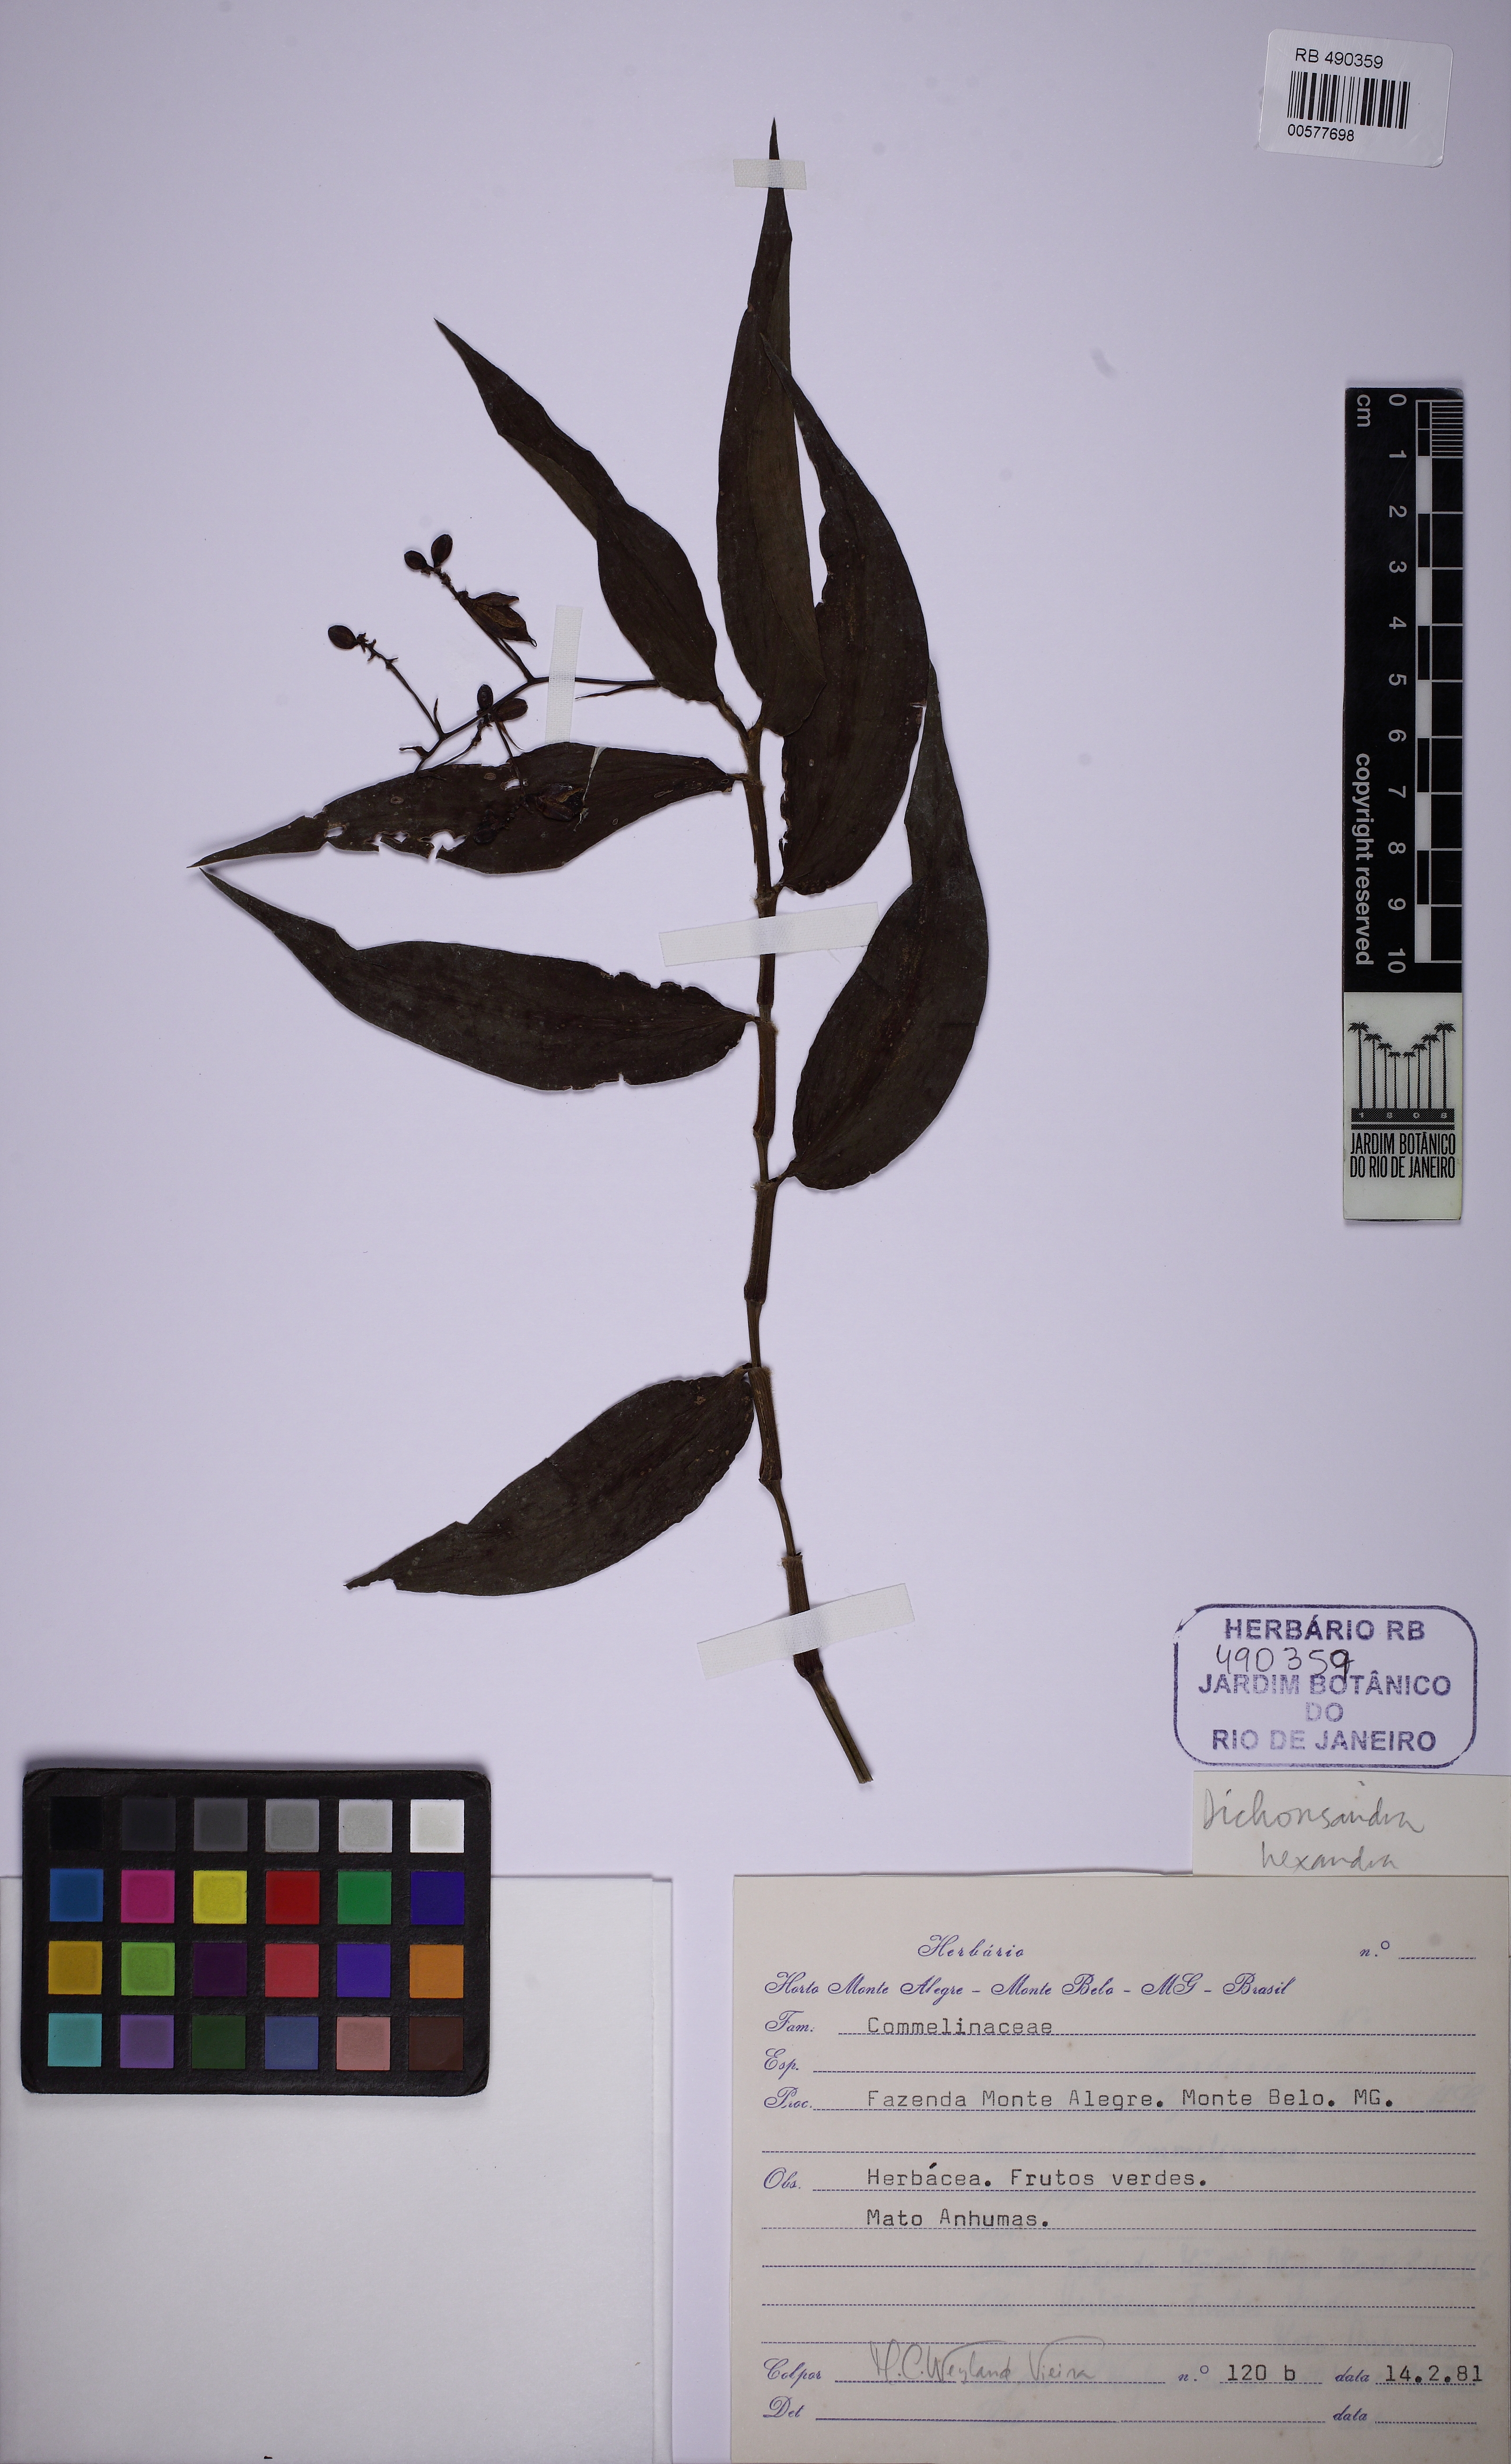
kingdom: Plantae
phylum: Tracheophyta
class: Liliopsida
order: Commelinales
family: Commelinaceae
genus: Dichorisandra
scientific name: Dichorisandra hexandra
